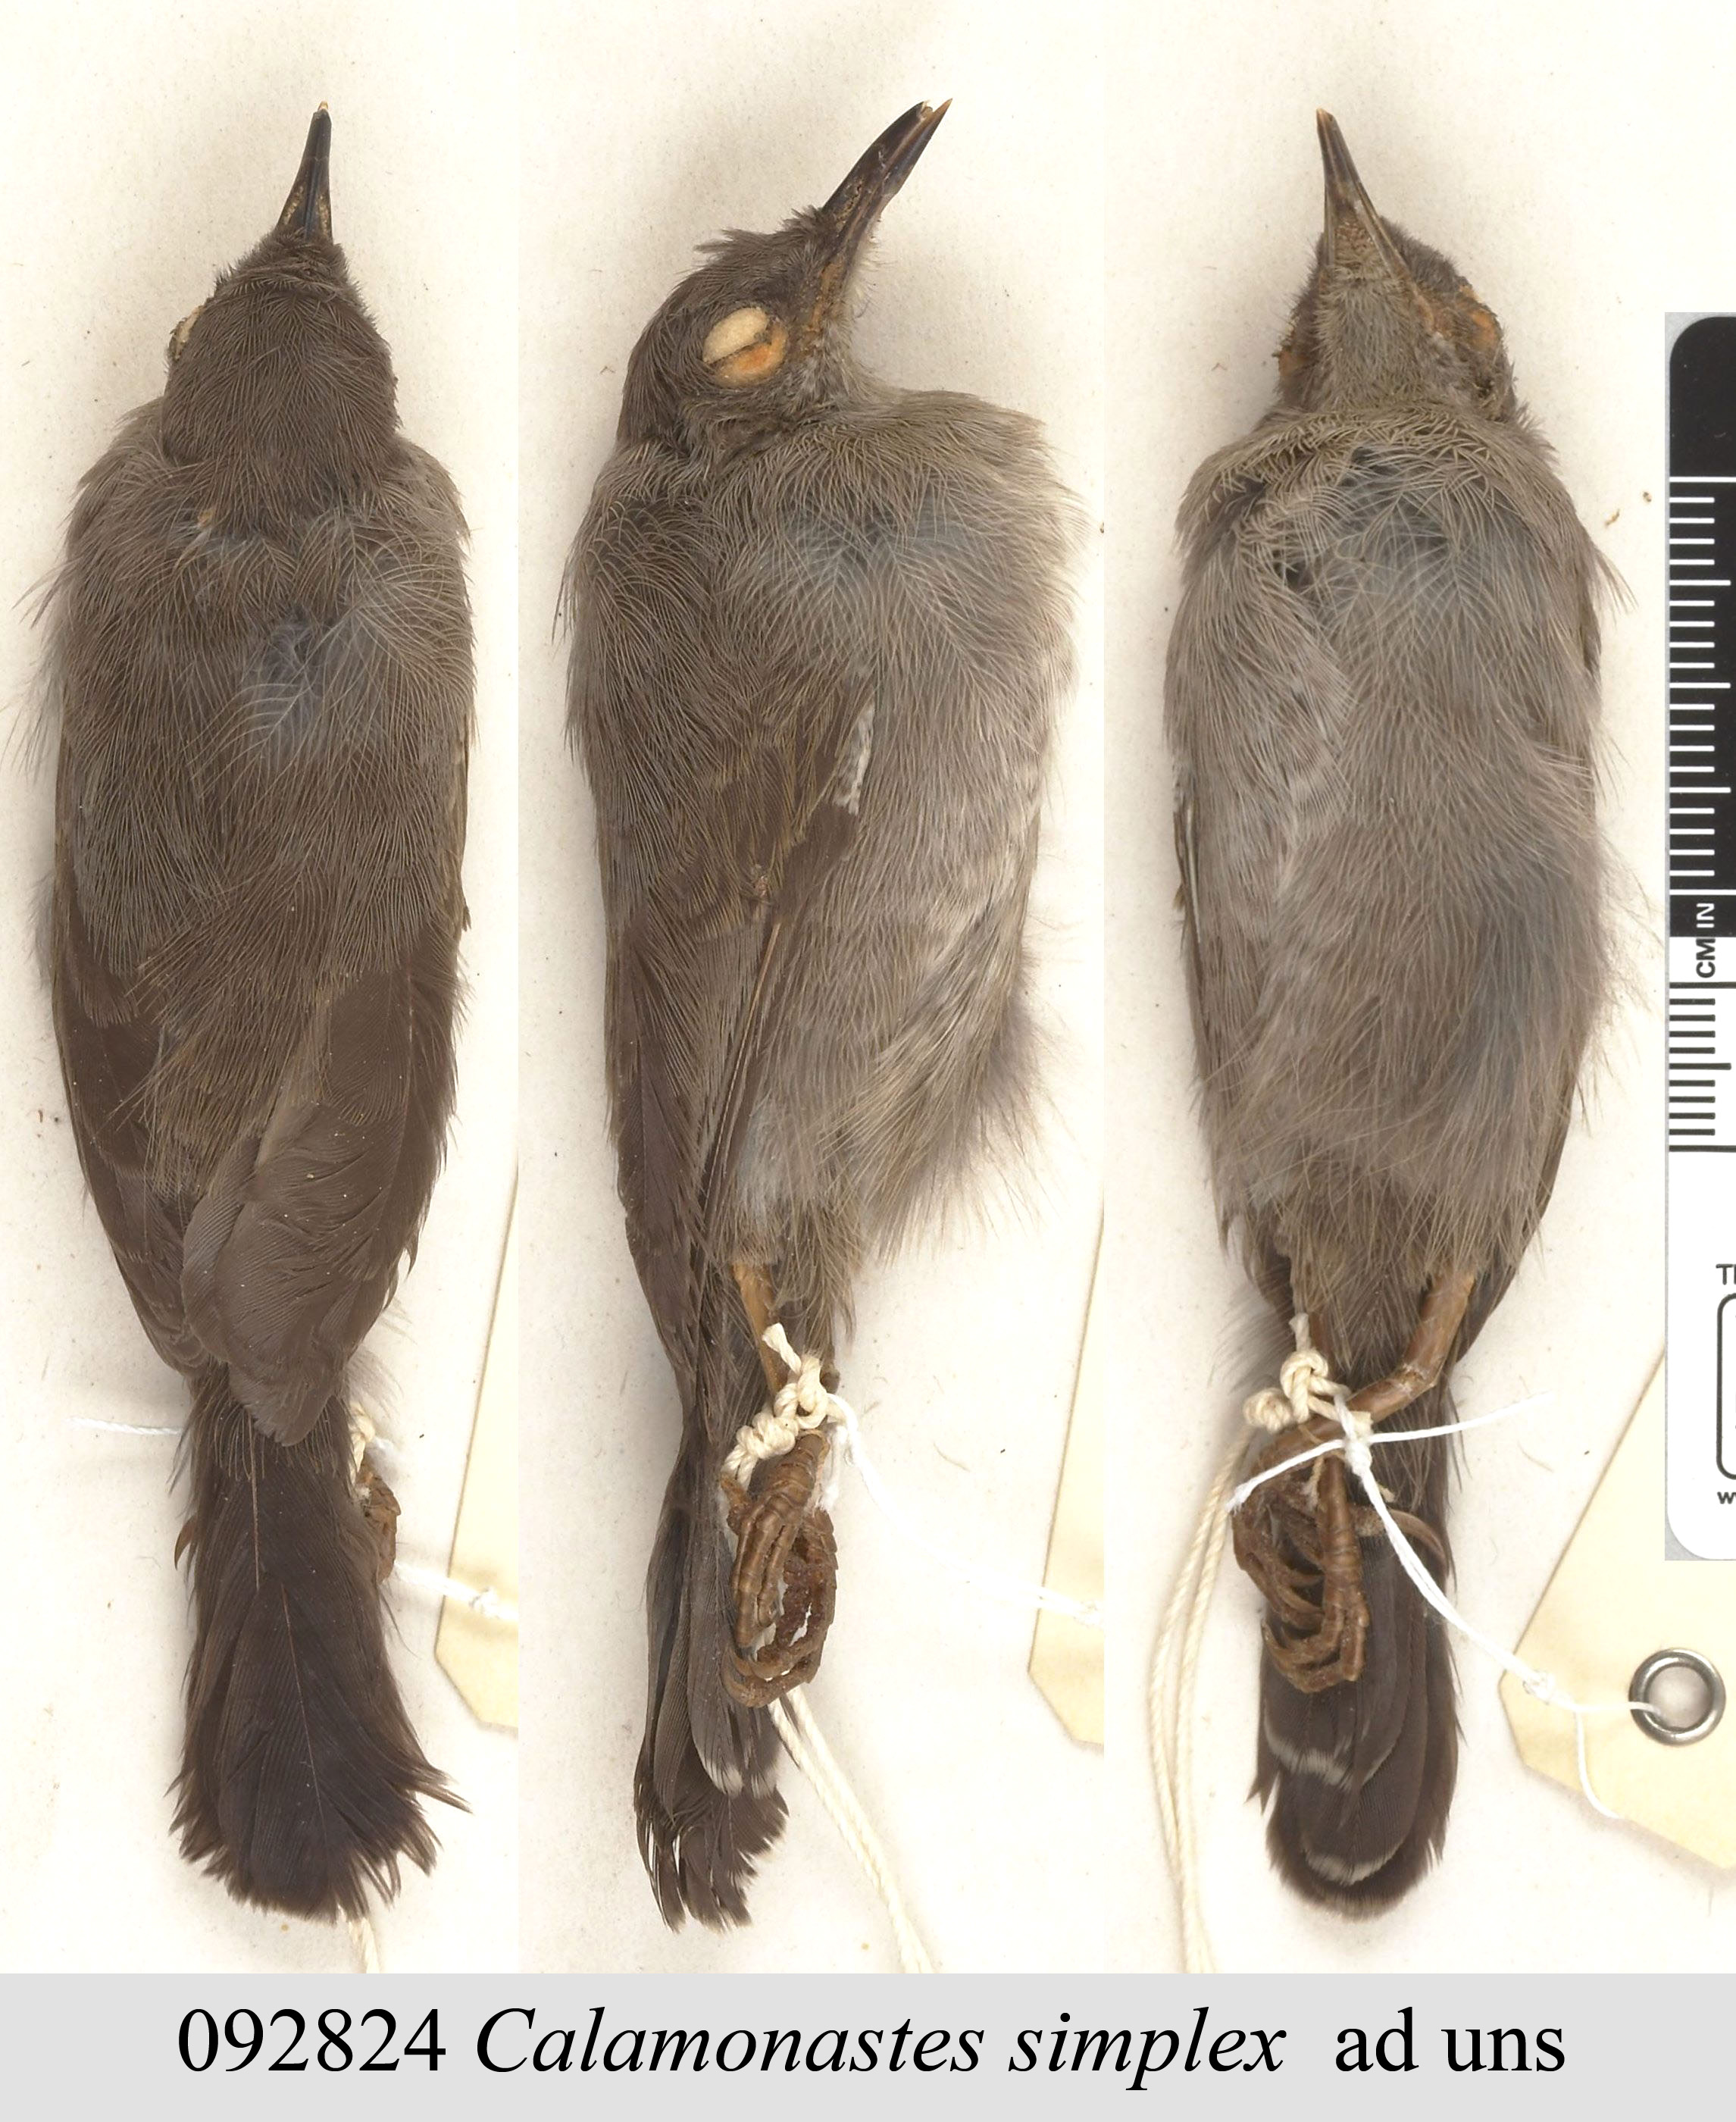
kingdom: Animalia
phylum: Chordata
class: Aves
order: Passeriformes
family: Cisticolidae
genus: Calamonastes
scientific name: Calamonastes simplex
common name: Grey wren-warbler
